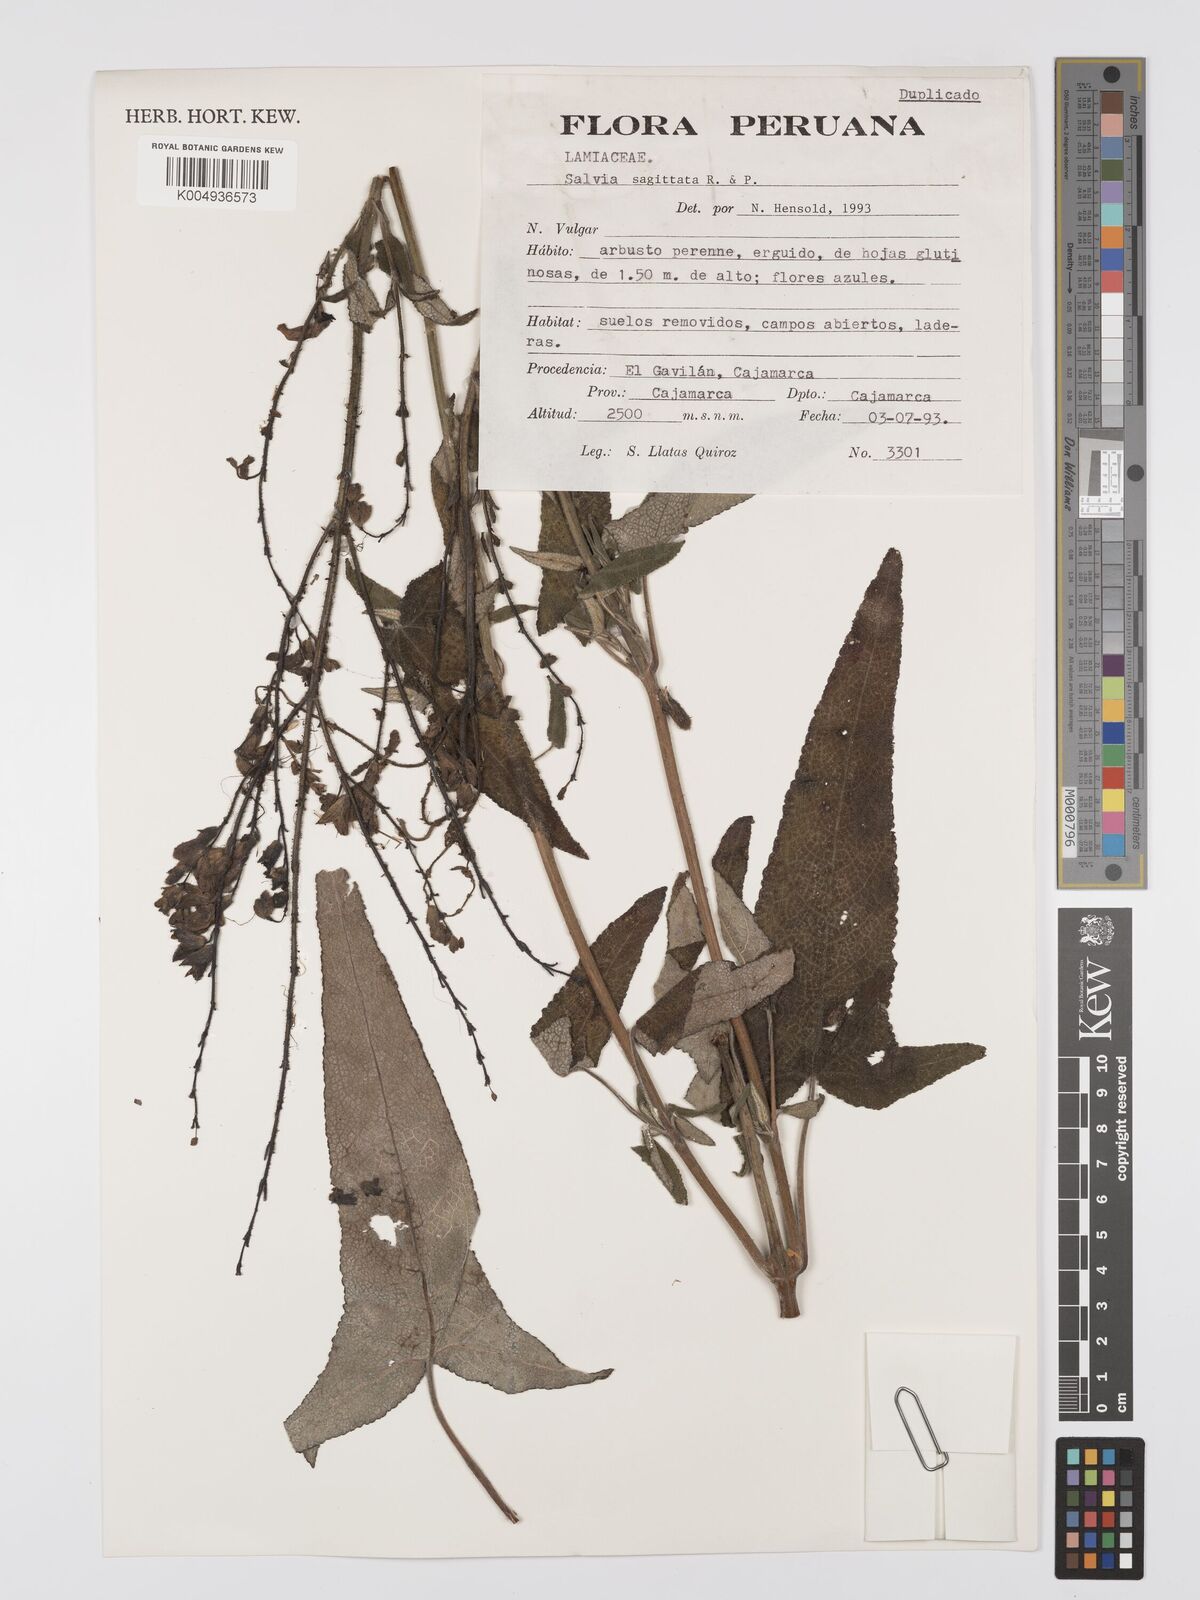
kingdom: Plantae
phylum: Tracheophyta
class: Magnoliopsida
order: Lamiales
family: Lamiaceae
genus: Salvia
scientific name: Salvia sagittata
